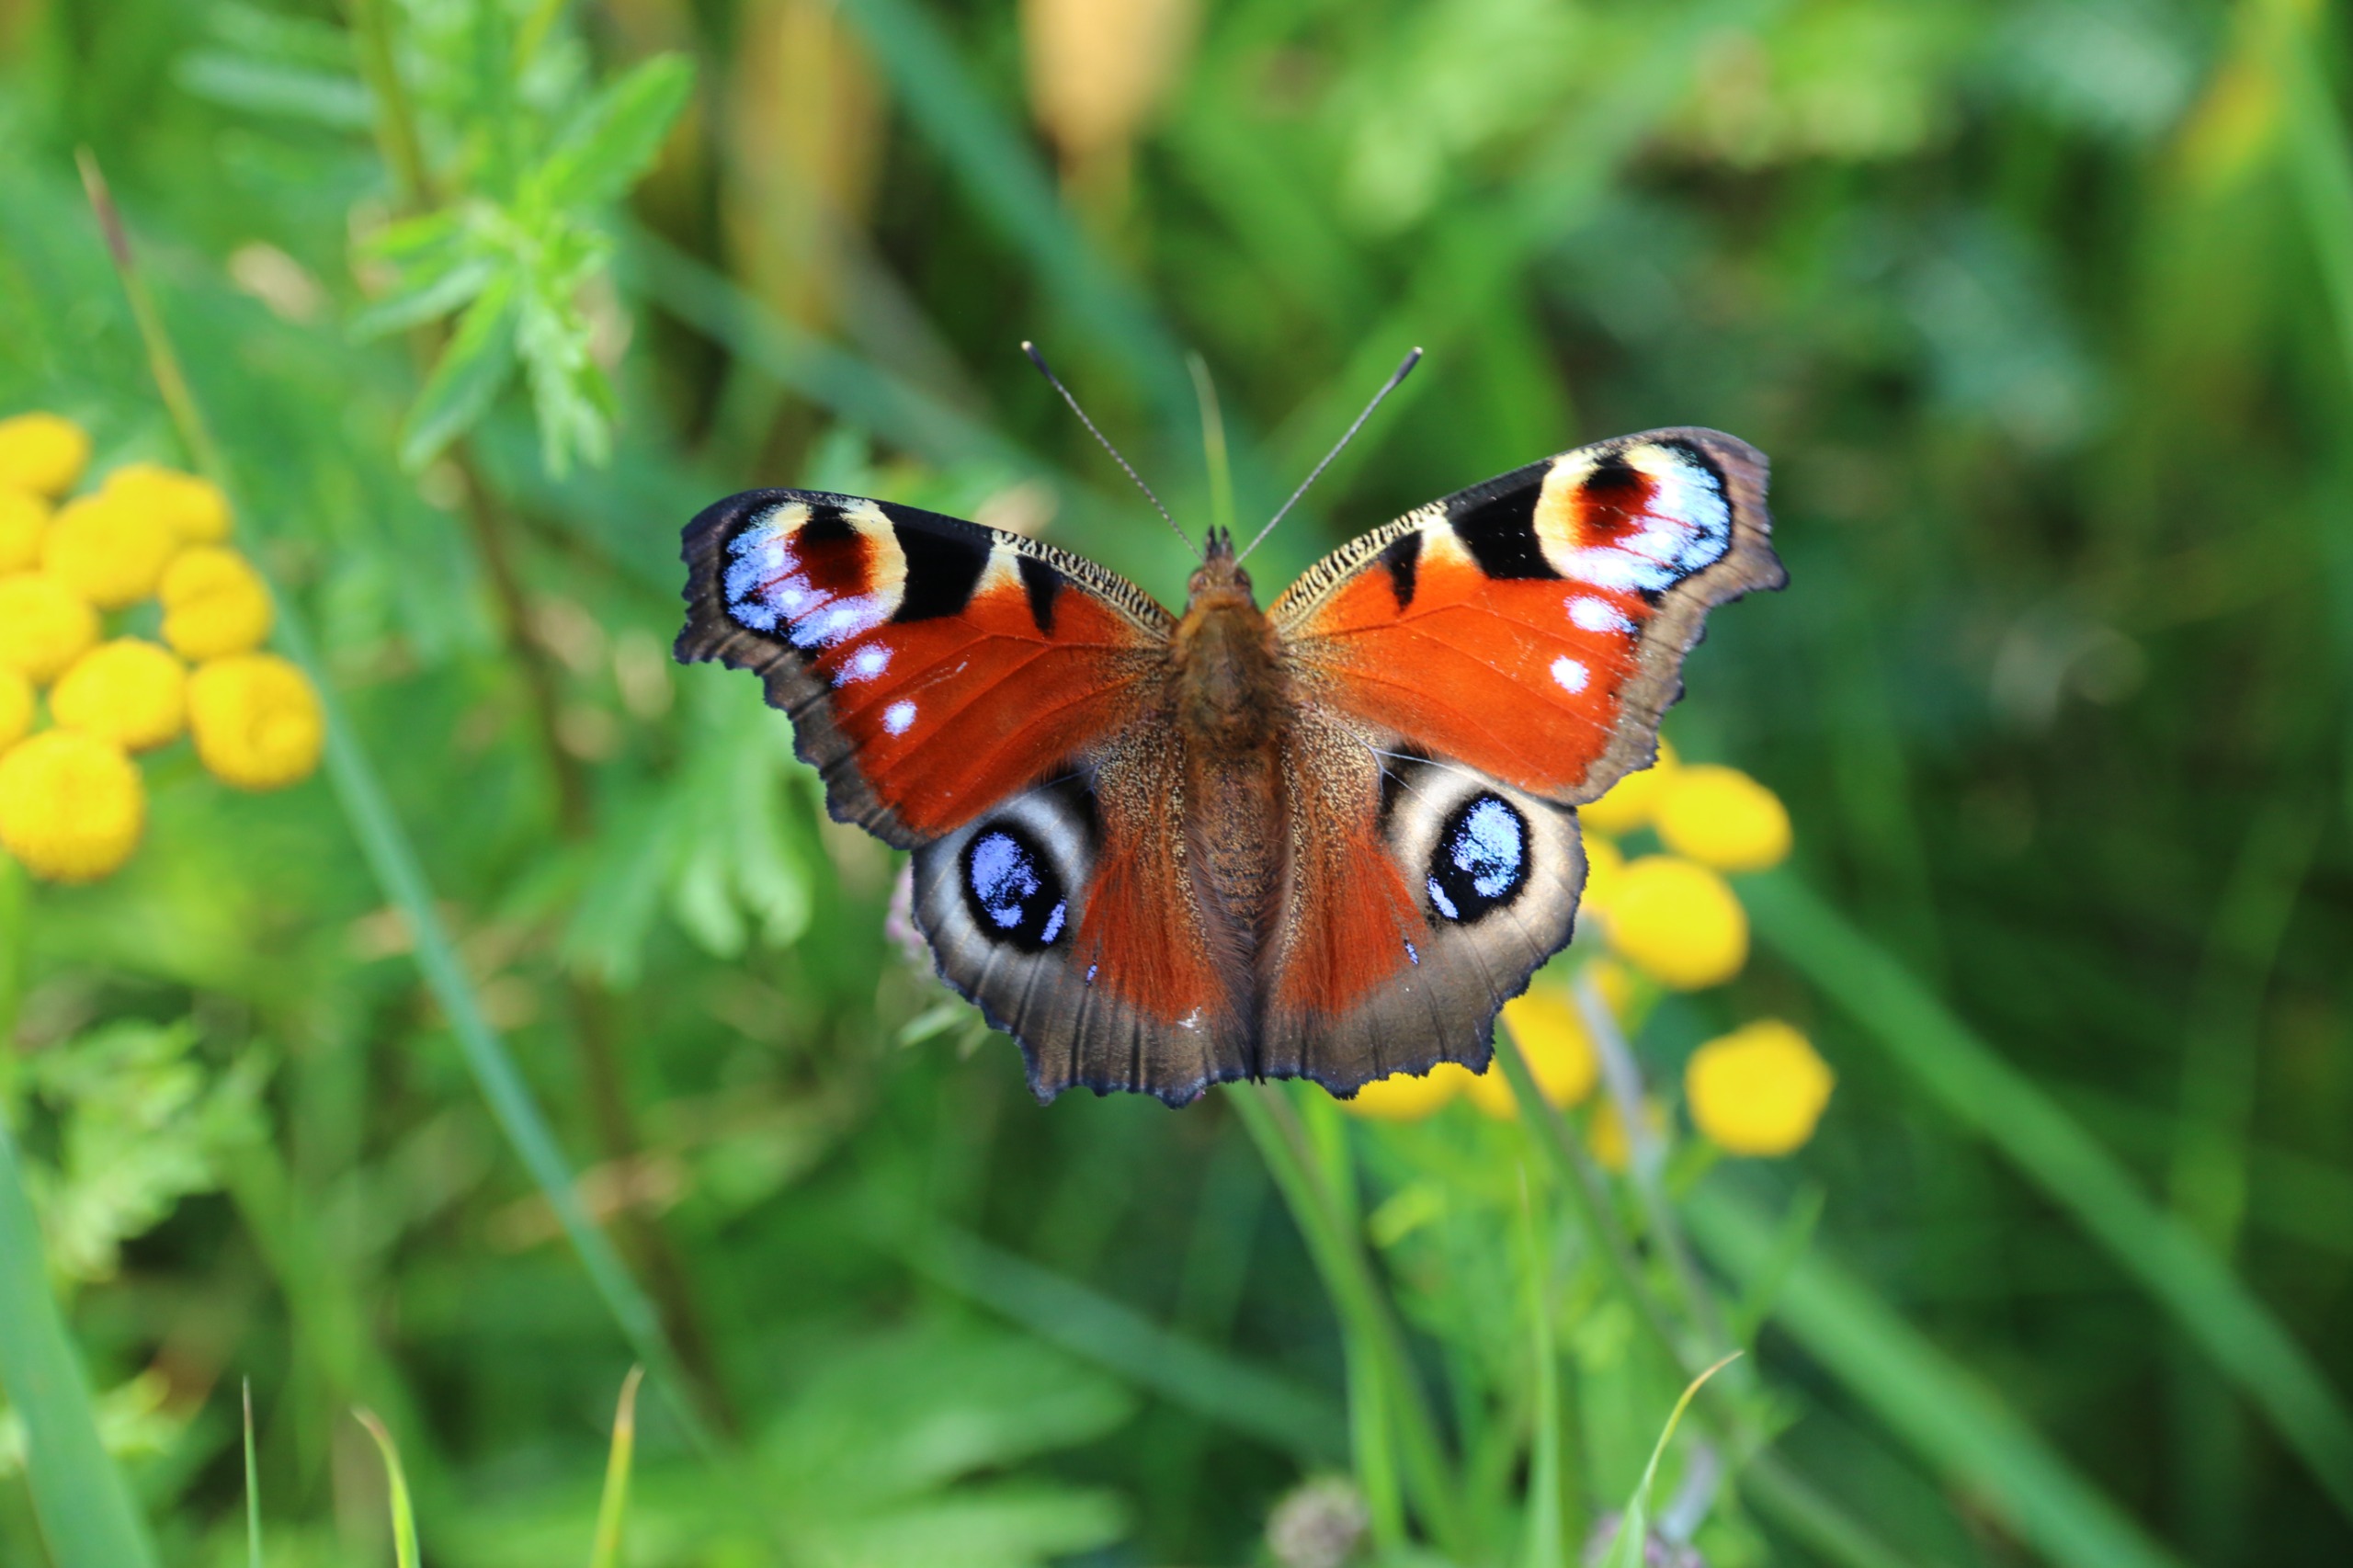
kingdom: Animalia
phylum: Arthropoda
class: Insecta
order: Lepidoptera
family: Nymphalidae
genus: Aglais
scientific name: Aglais io
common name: Dagpåfugleøje
